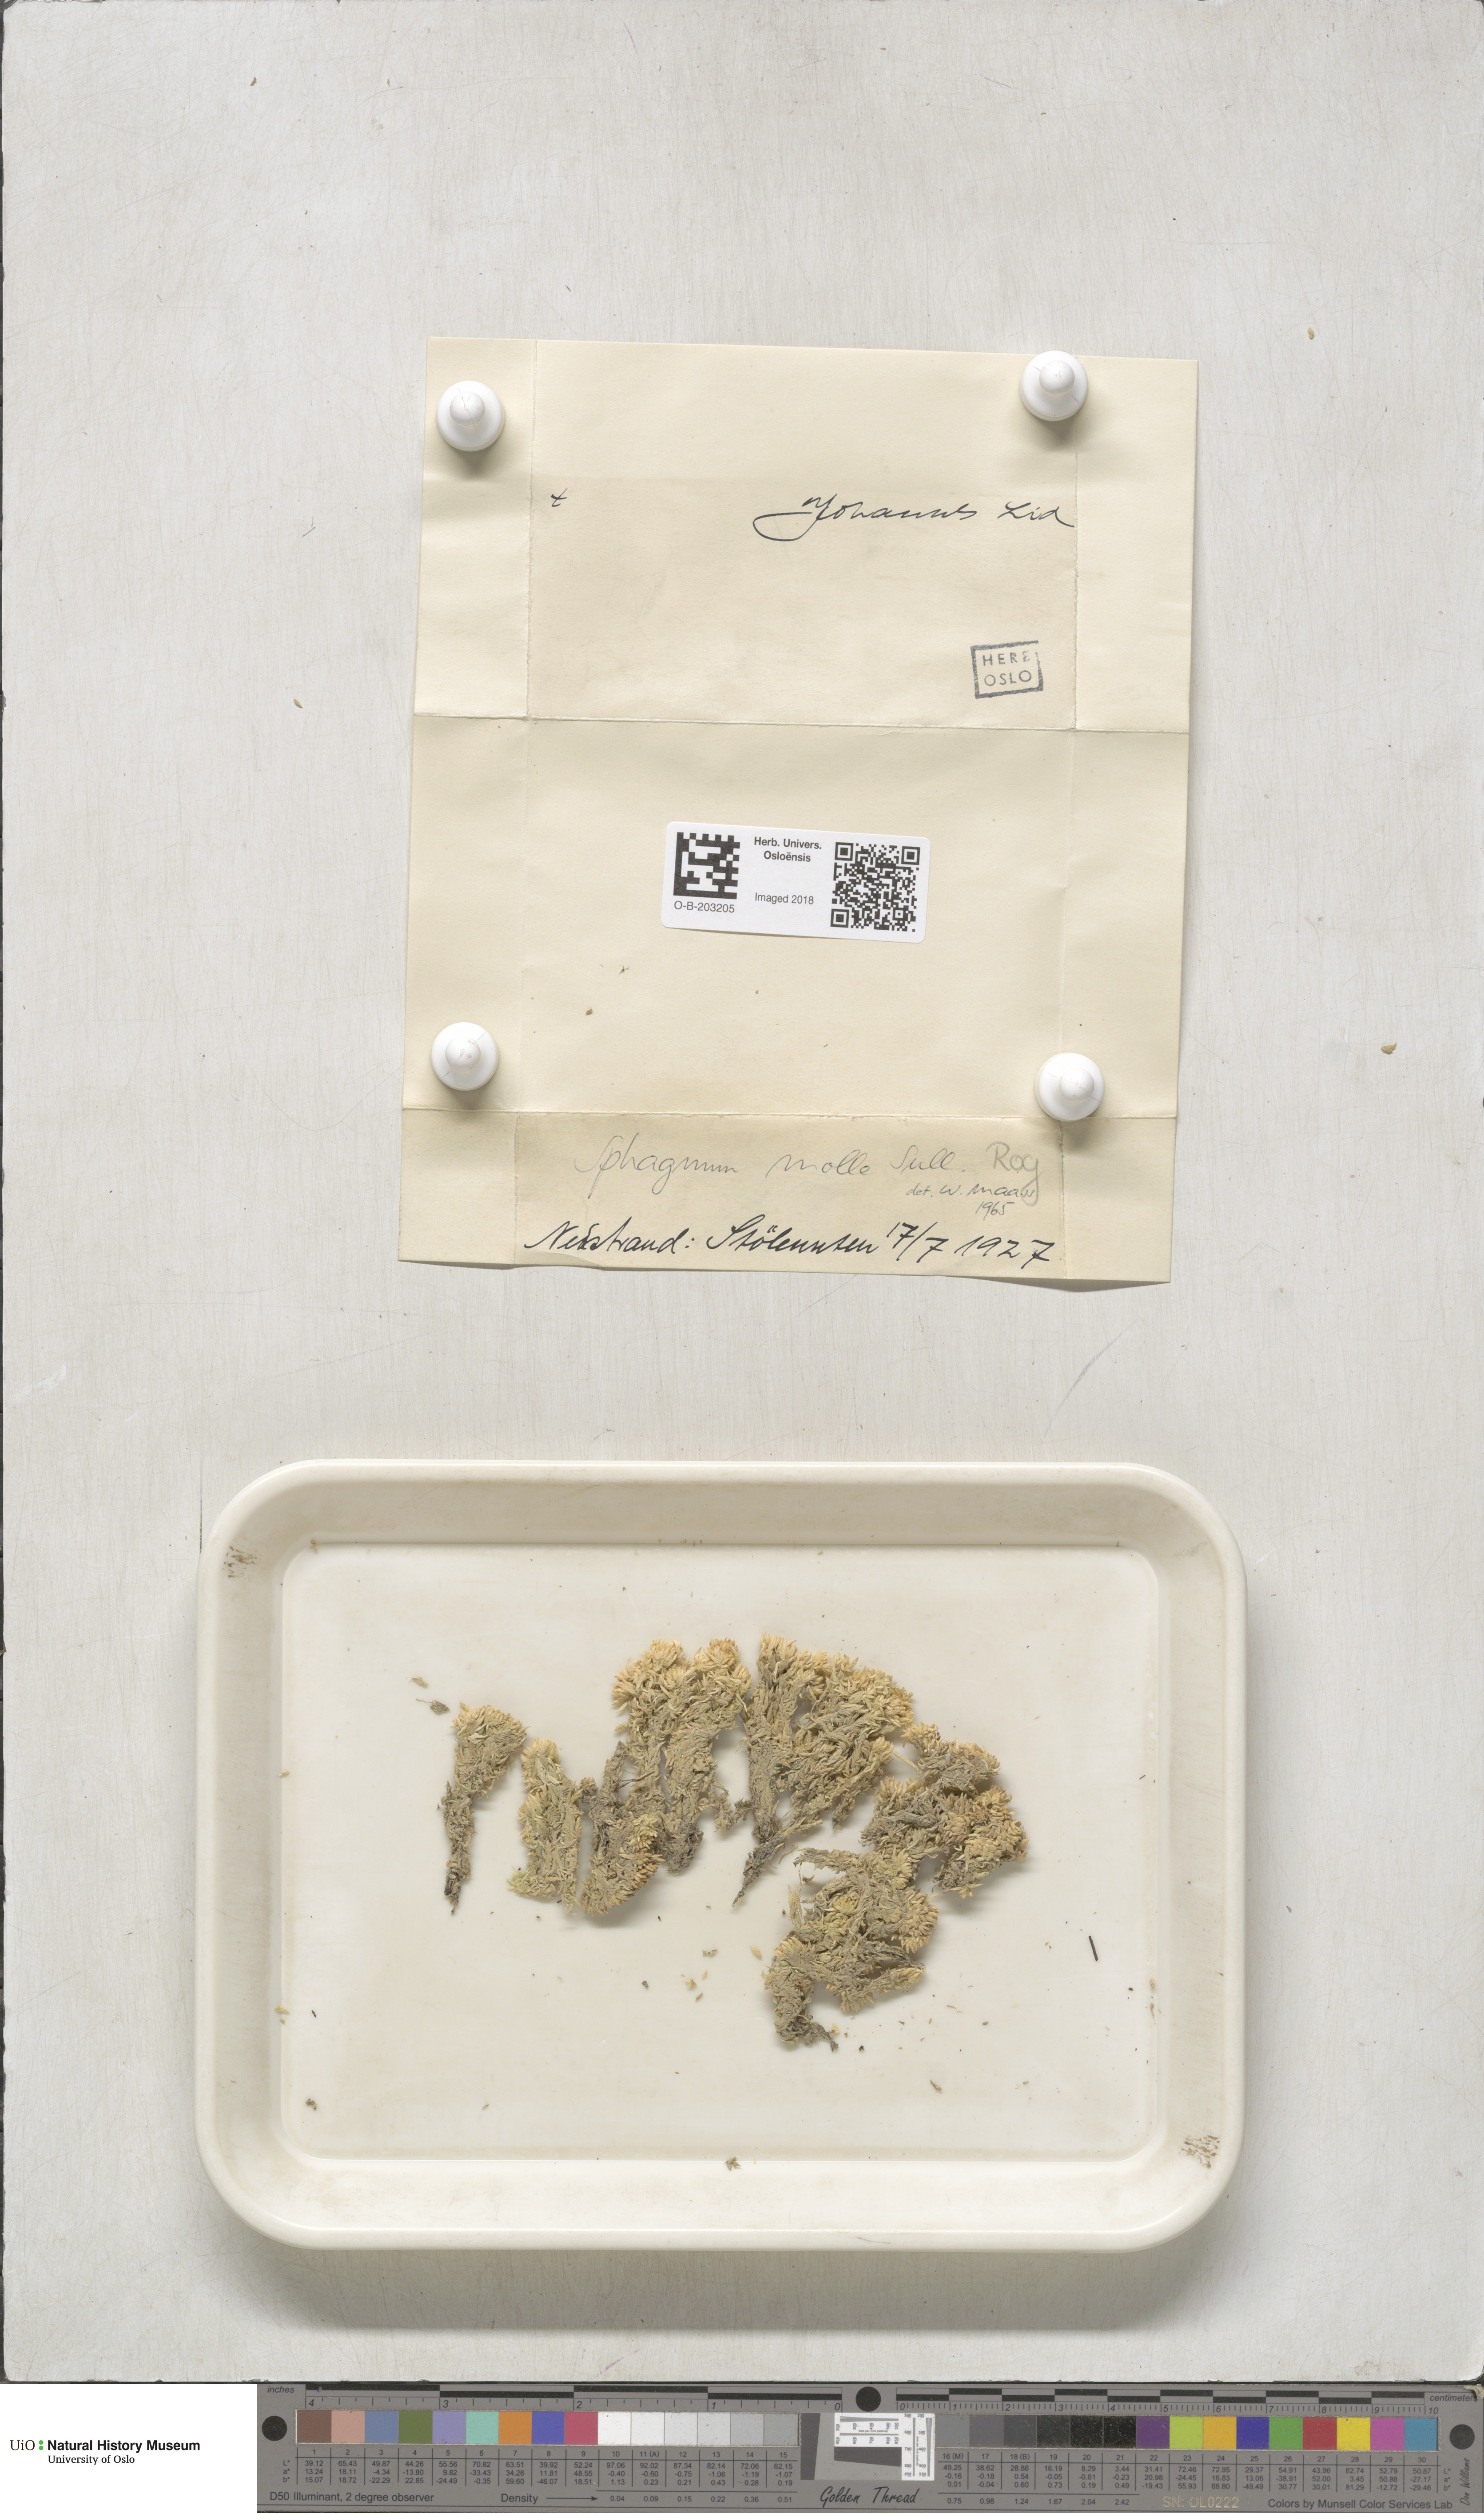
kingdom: Plantae
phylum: Bryophyta
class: Sphagnopsida
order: Sphagnales
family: Sphagnaceae
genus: Sphagnum
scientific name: Sphagnum molle
